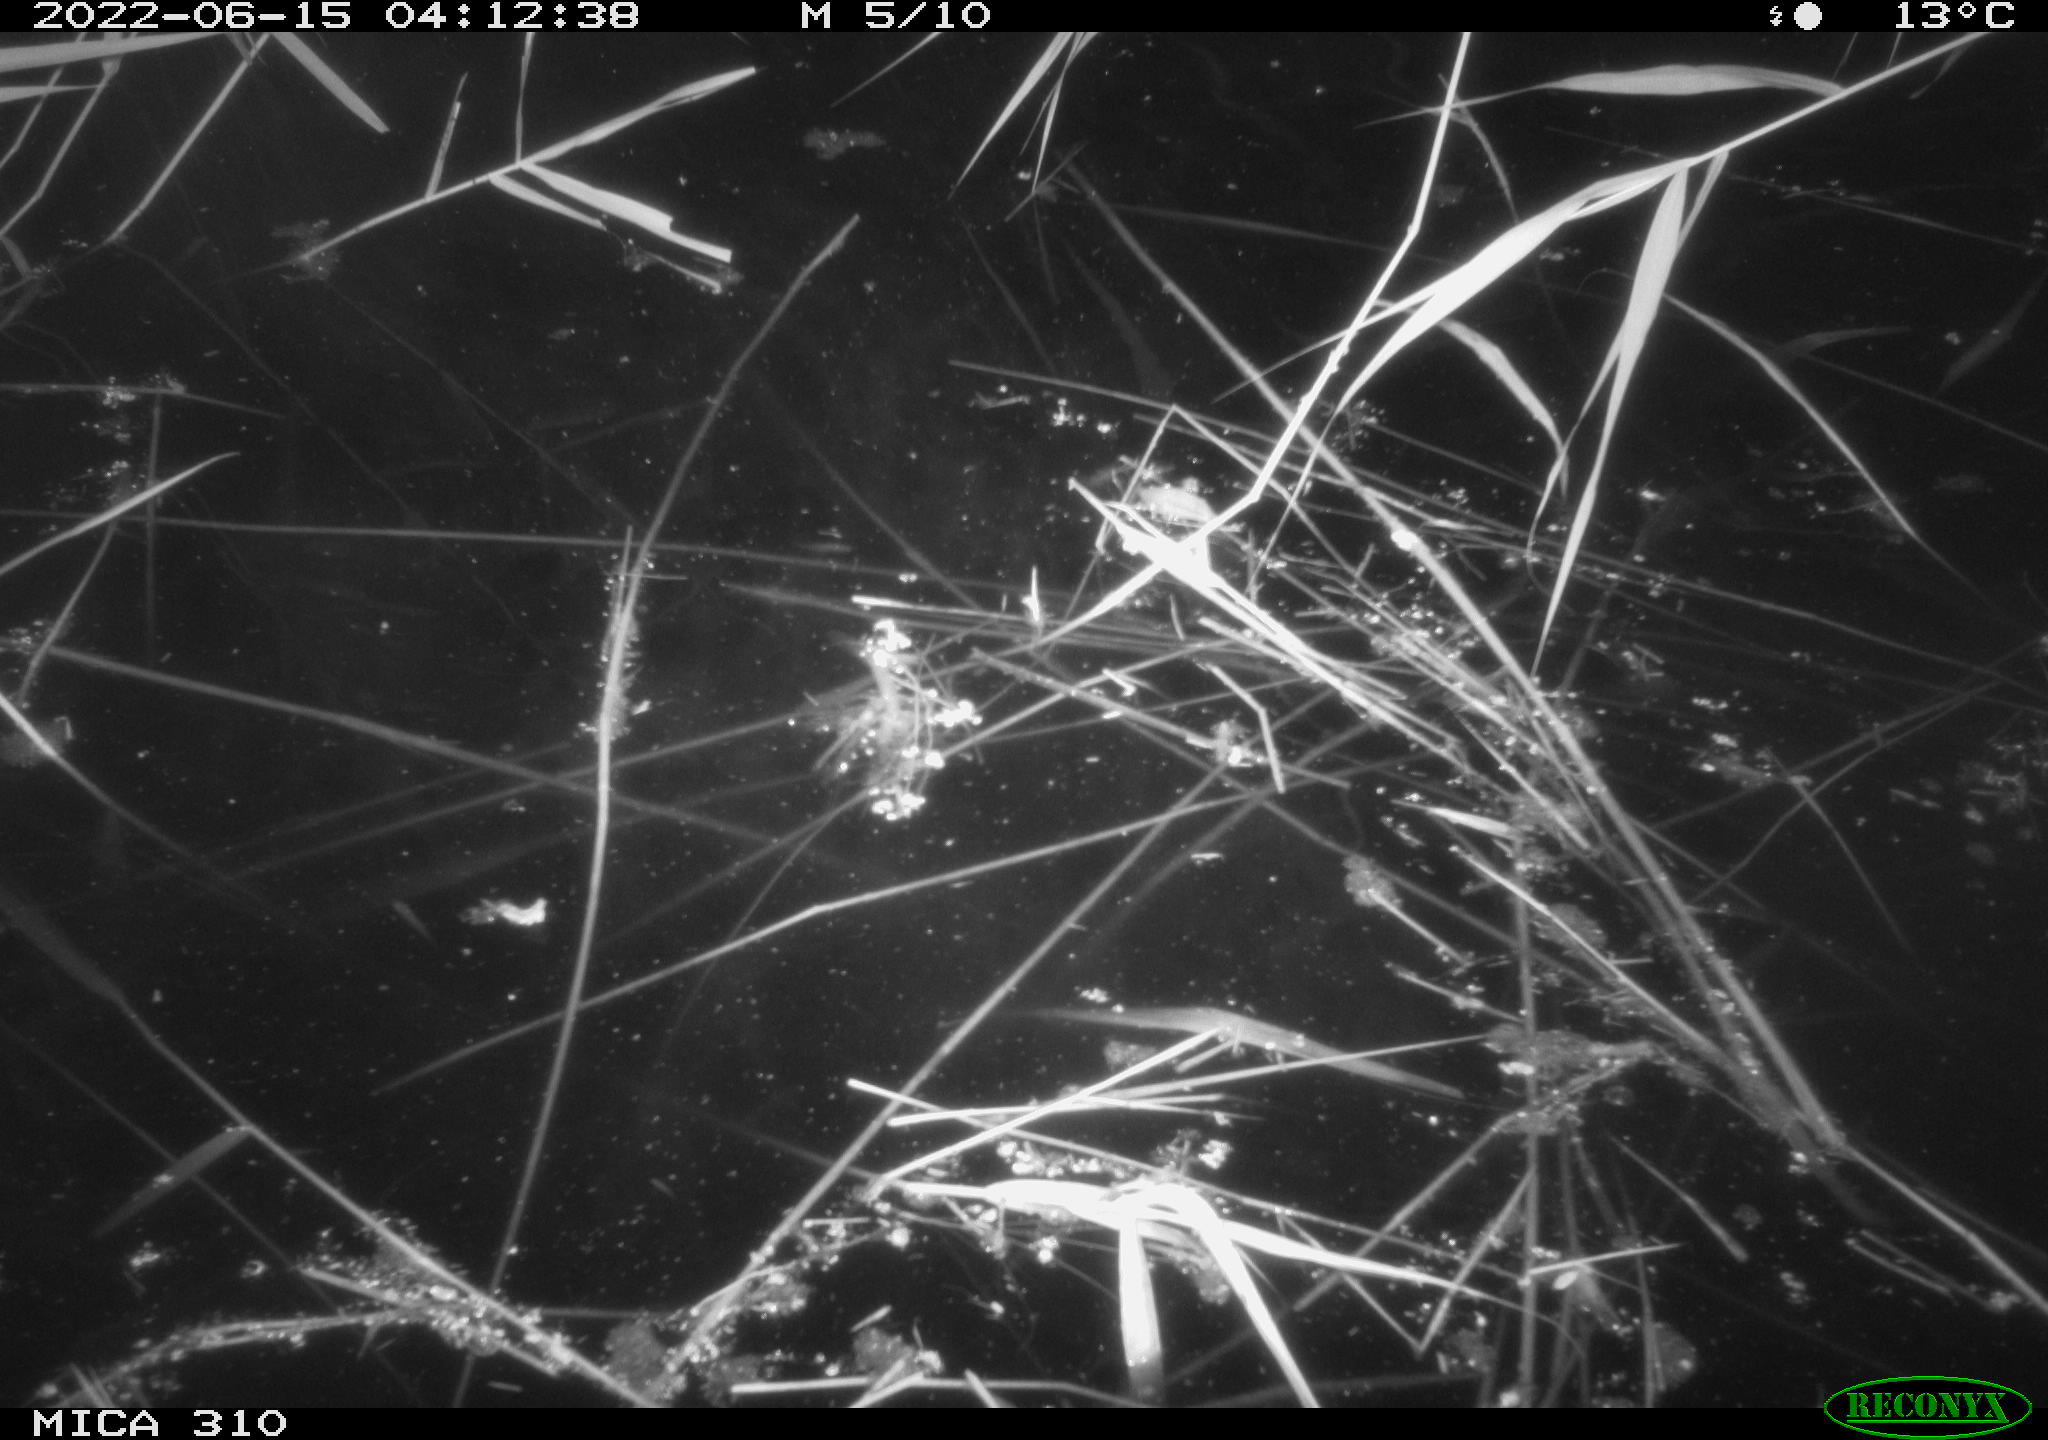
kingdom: Animalia
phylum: Chordata
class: Aves
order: Gruiformes
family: Rallidae
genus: Fulica
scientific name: Fulica atra
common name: Eurasian coot
